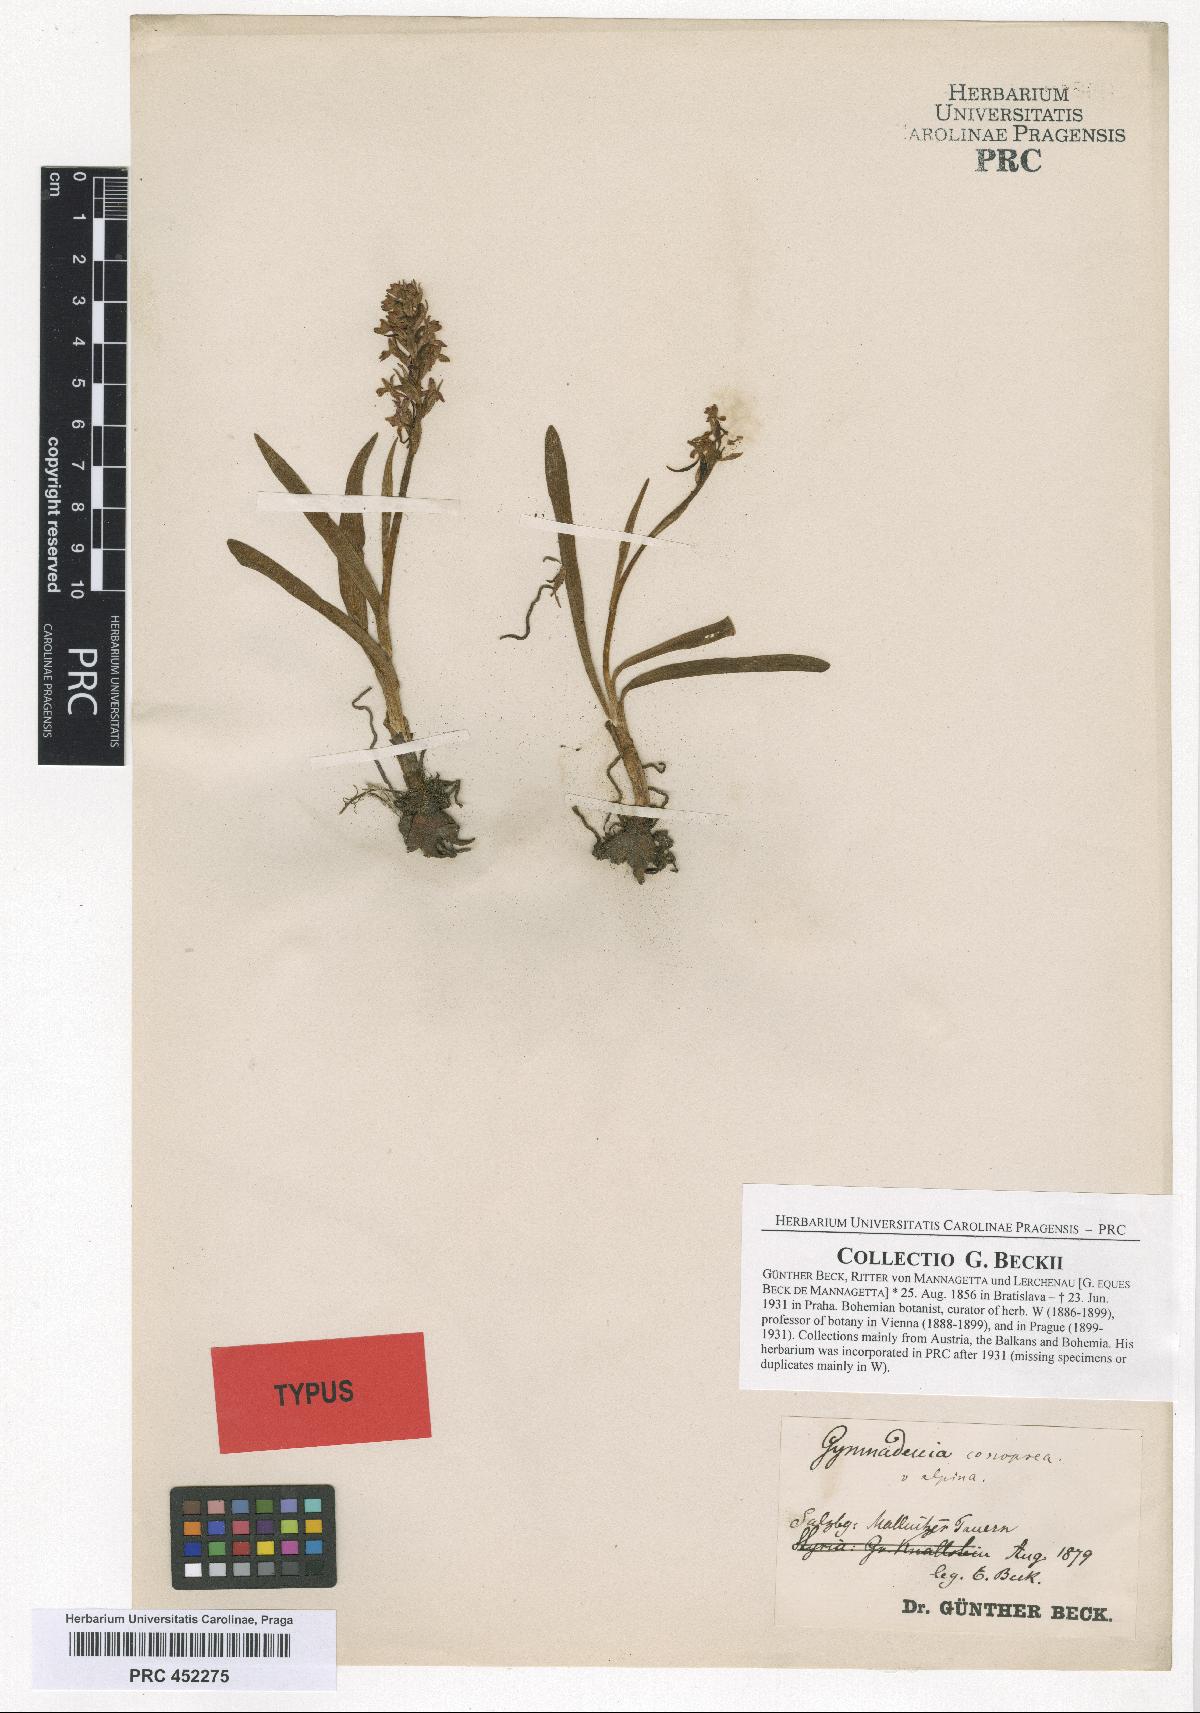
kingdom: Plantae
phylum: Tracheophyta
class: Liliopsida
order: Asparagales
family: Orchidaceae
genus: Gymnadenia
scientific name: Gymnadenia conopsea
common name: Fragrant orchid
